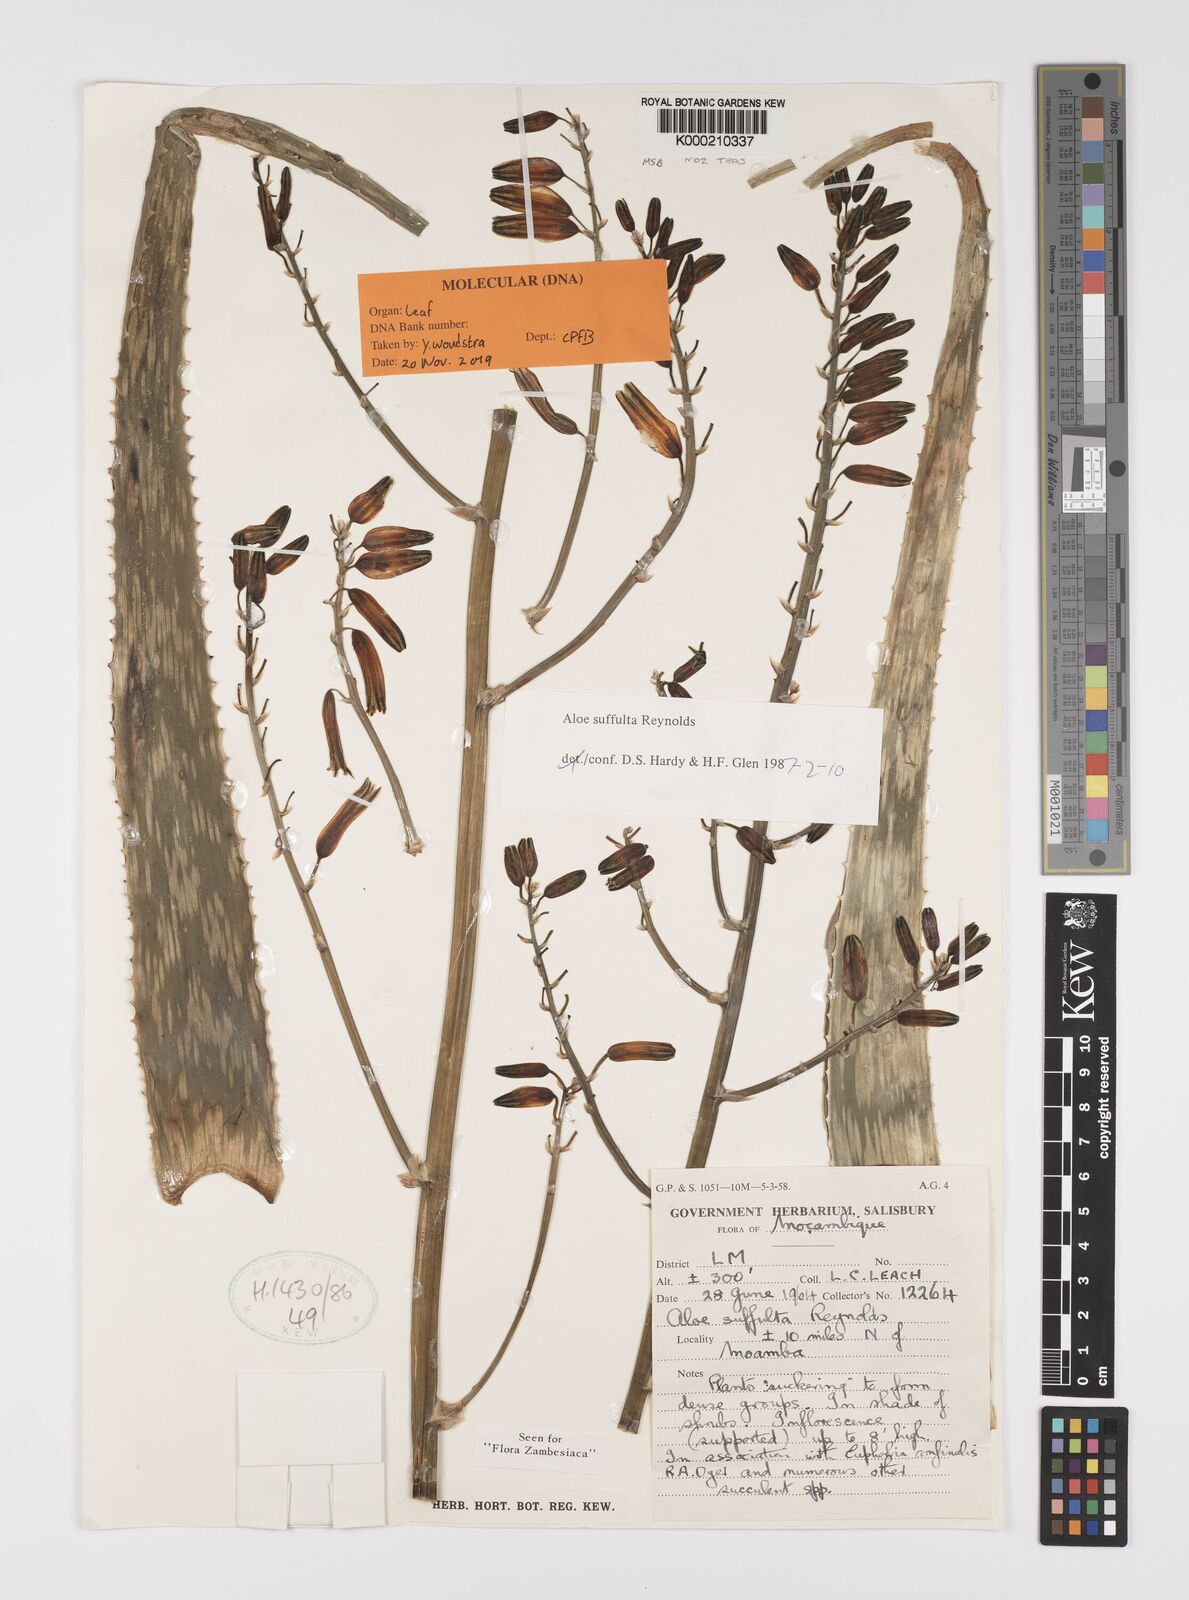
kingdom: Plantae
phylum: Tracheophyta
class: Liliopsida
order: Asparagales
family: Asphodelaceae
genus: Aloe
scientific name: Aloe suffulta
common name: Climbing-flower aloe
